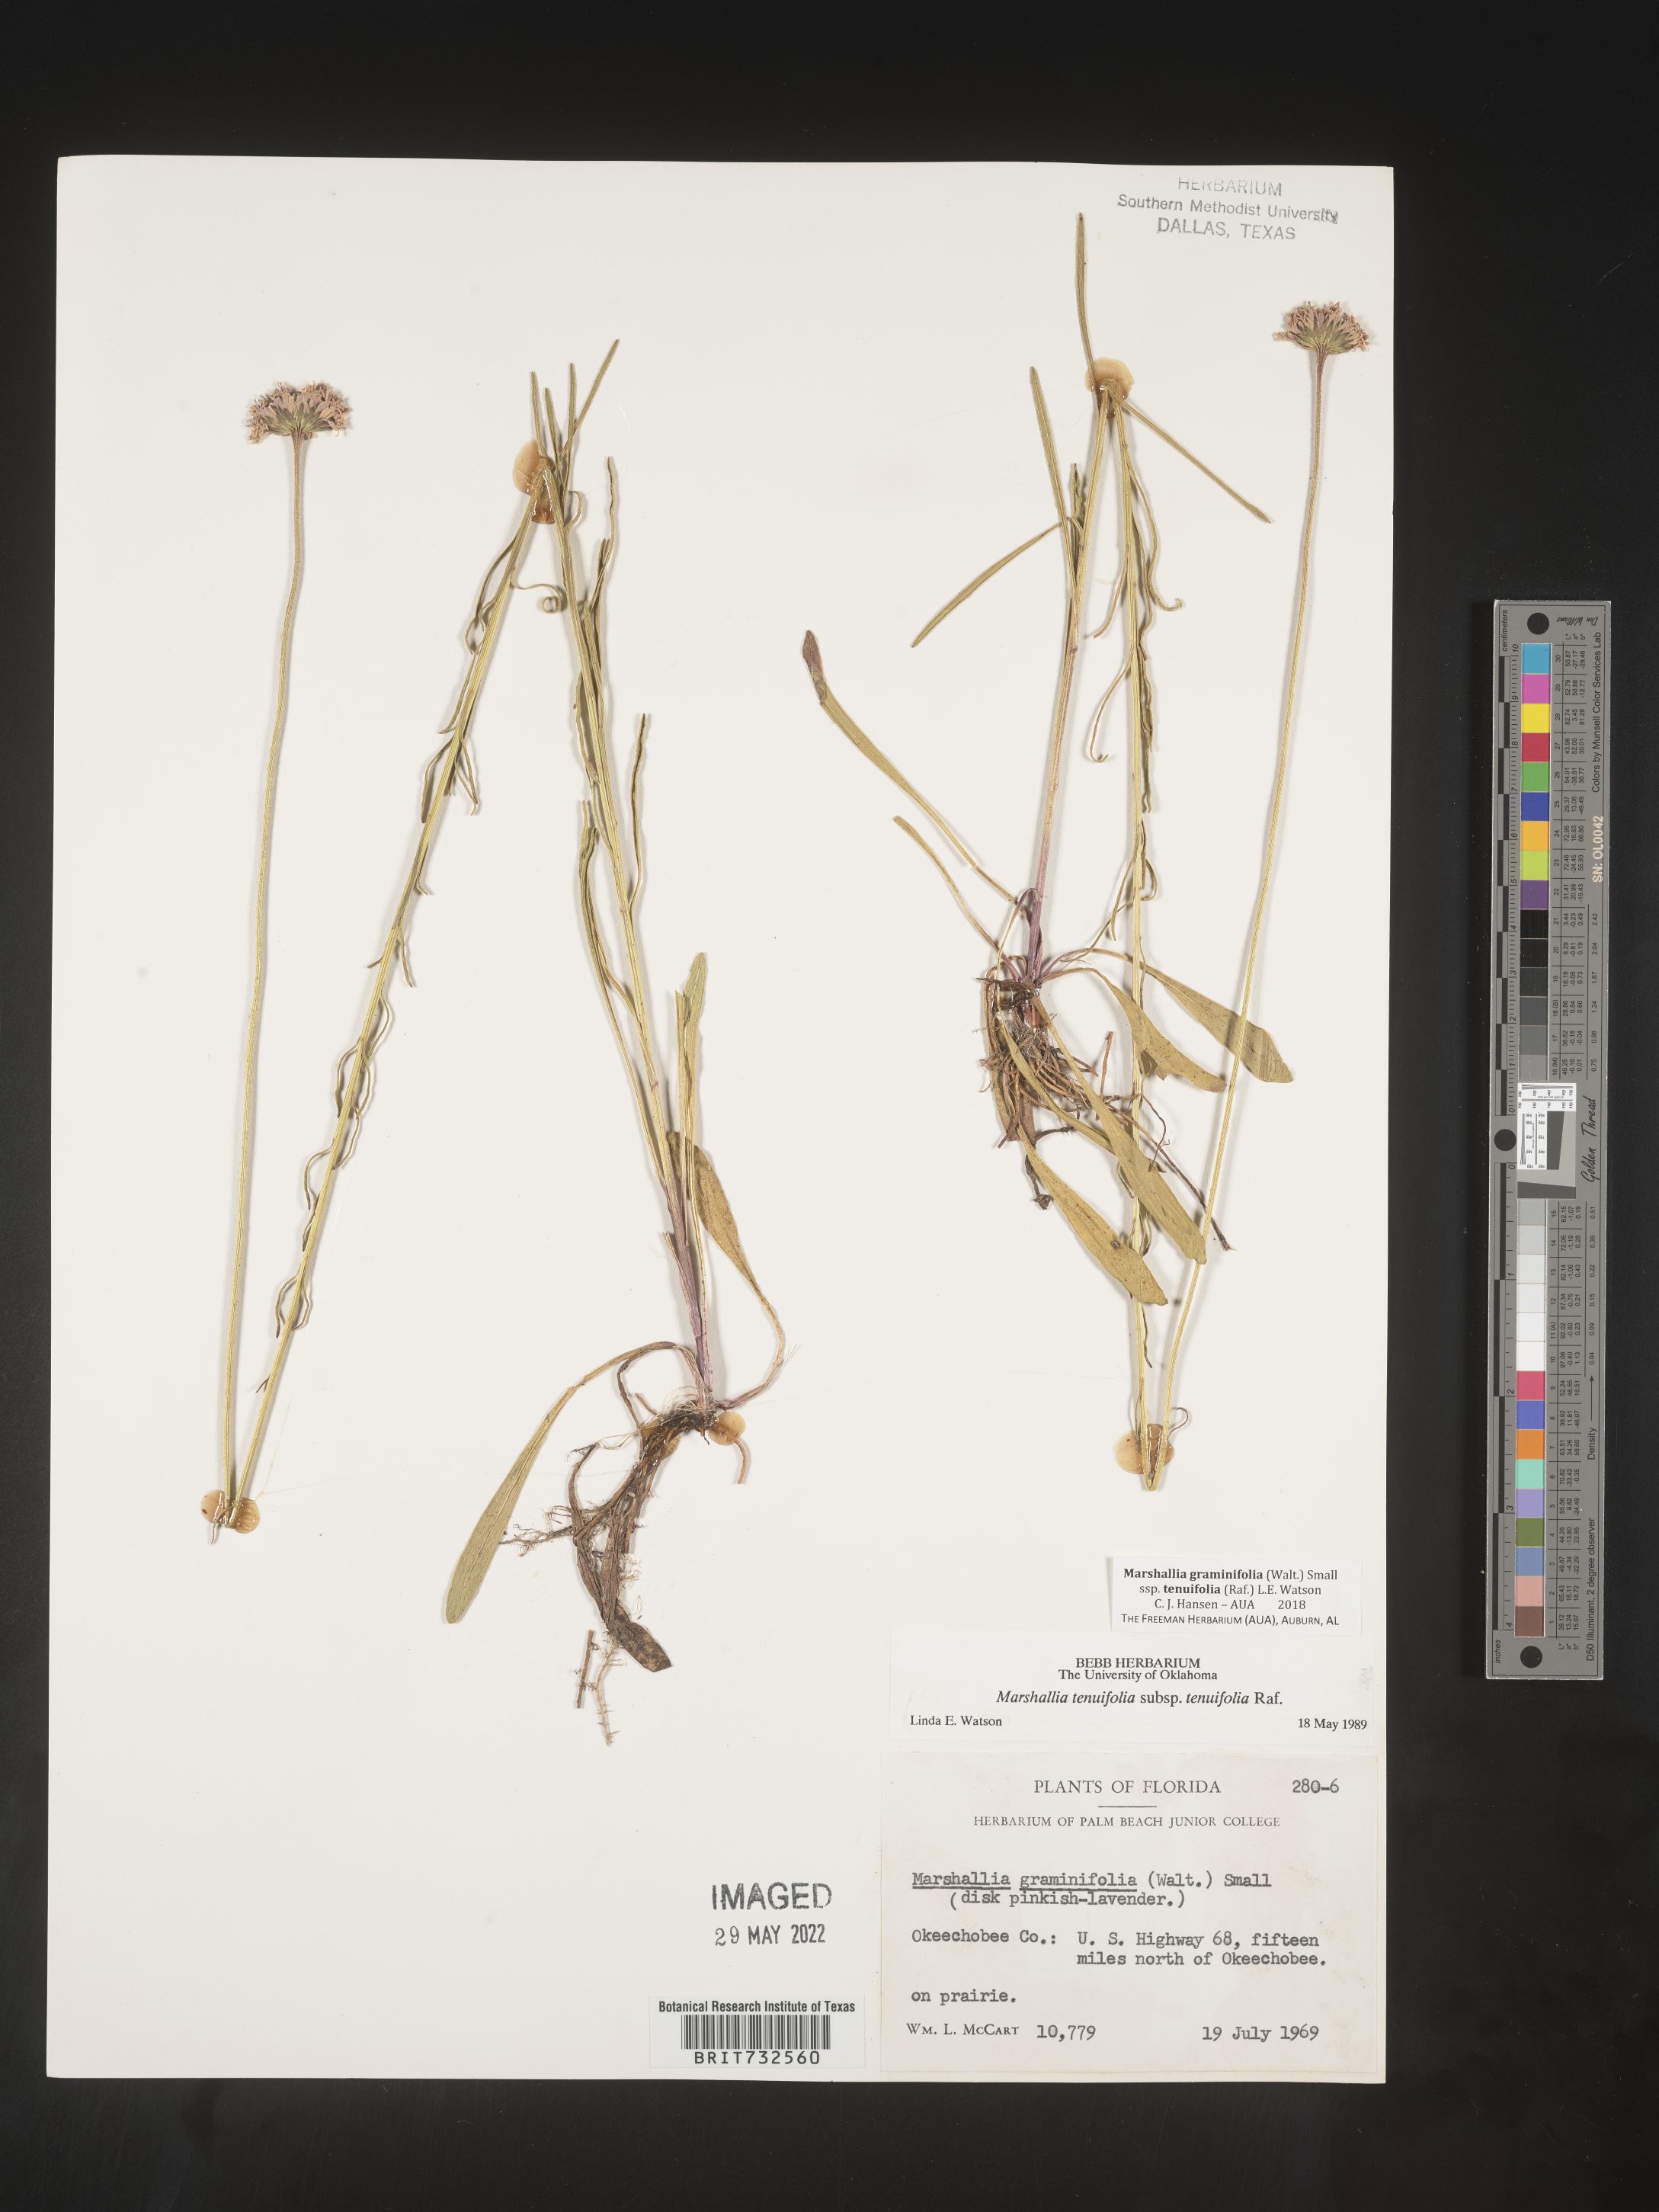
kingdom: Plantae
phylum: Tracheophyta
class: Magnoliopsida
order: Asterales
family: Asteraceae
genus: Marshallia
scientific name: Marshallia graminifolia
